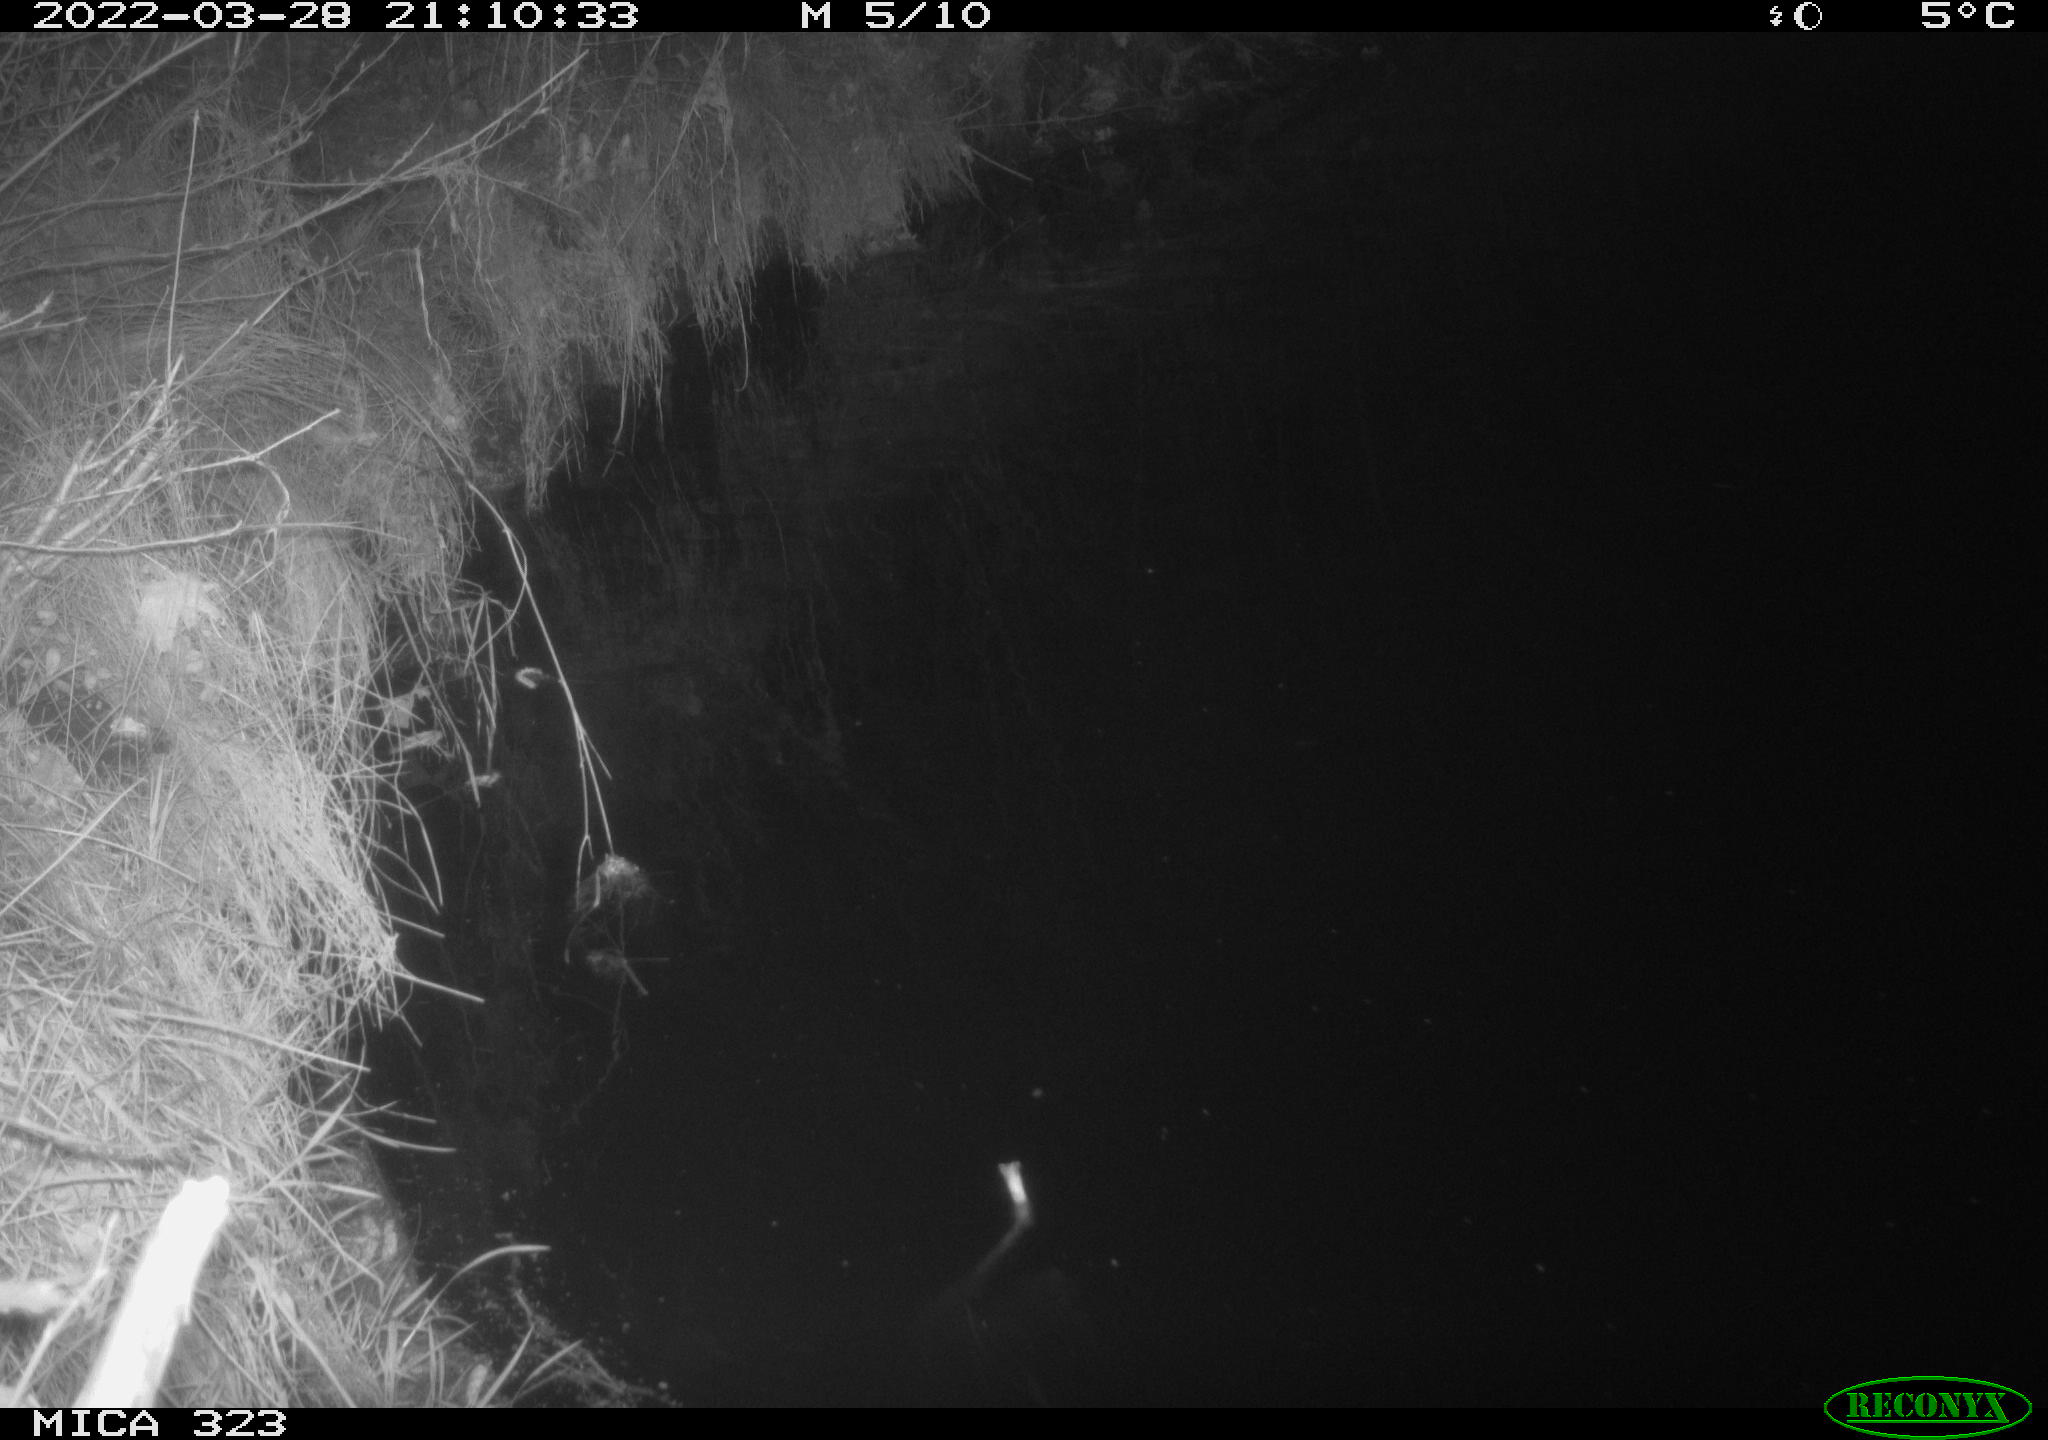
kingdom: Animalia
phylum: Chordata
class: Aves
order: Anseriformes
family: Anatidae
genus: Anas
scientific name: Anas
